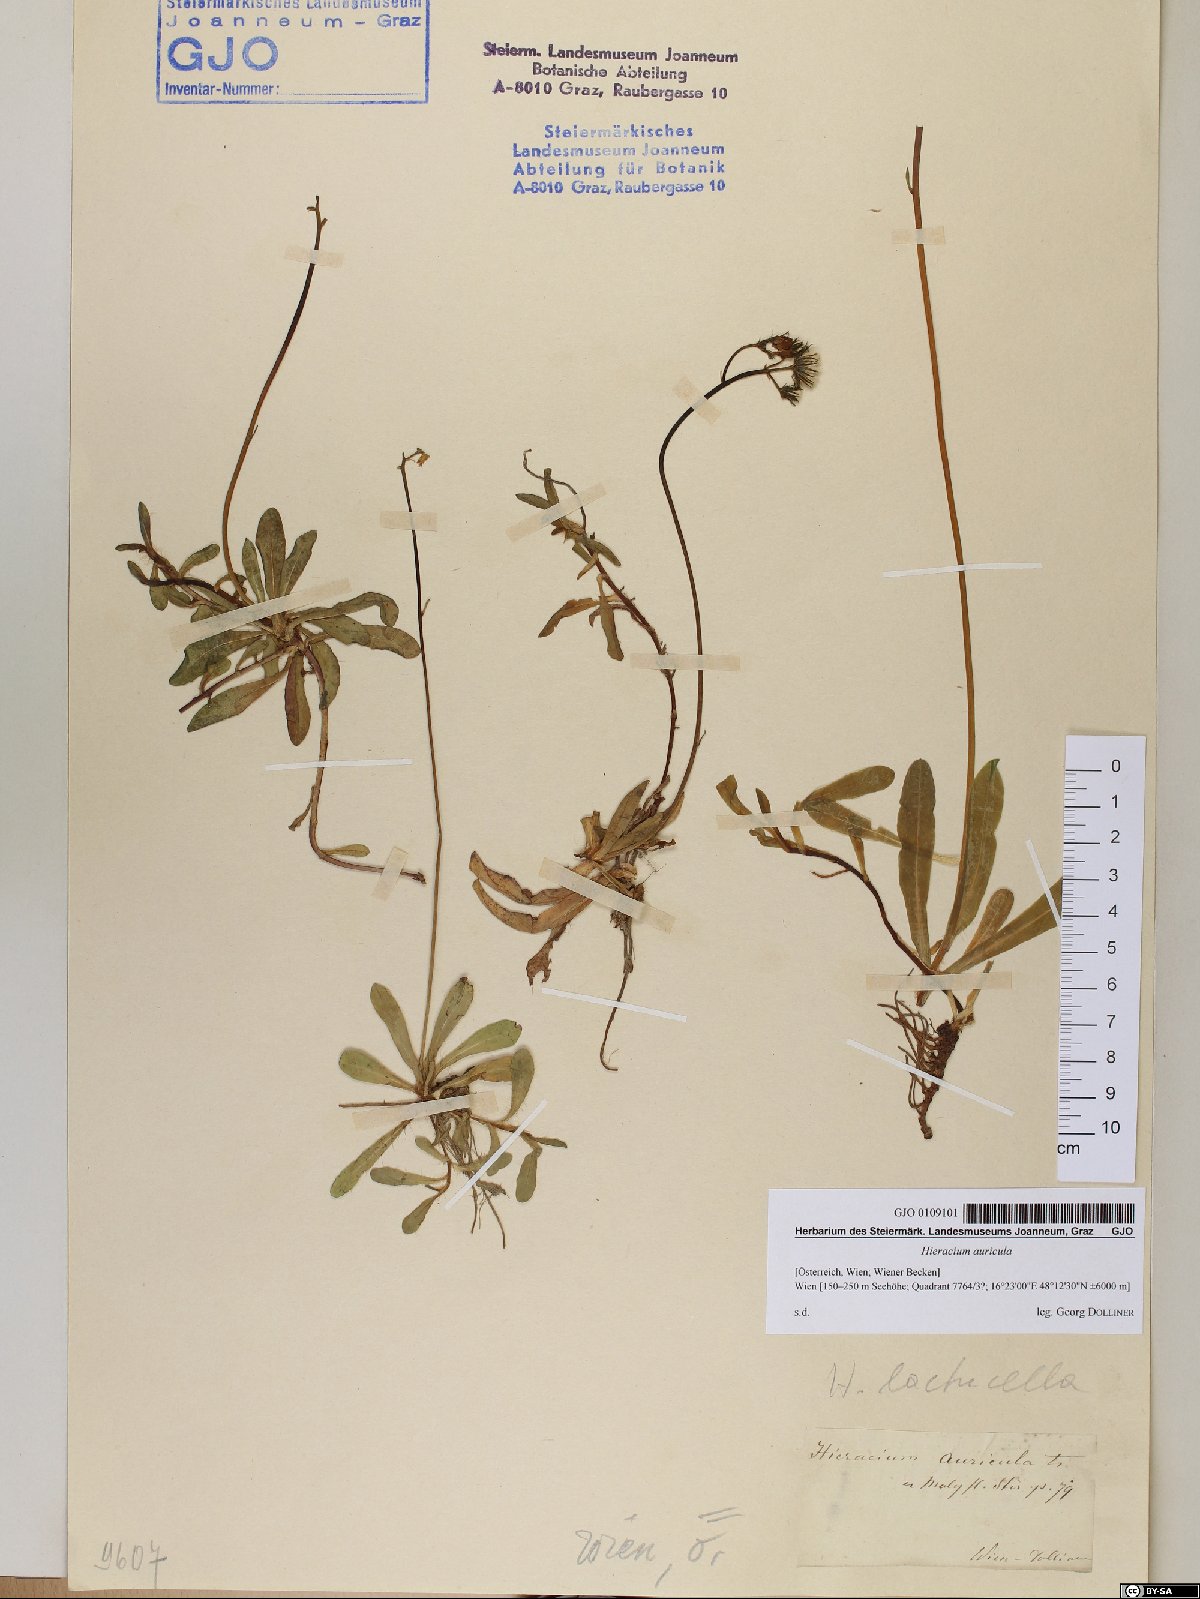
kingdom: Plantae
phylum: Tracheophyta
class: Magnoliopsida
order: Asterales
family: Asteraceae
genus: Hieracium
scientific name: Hieracium auricula
